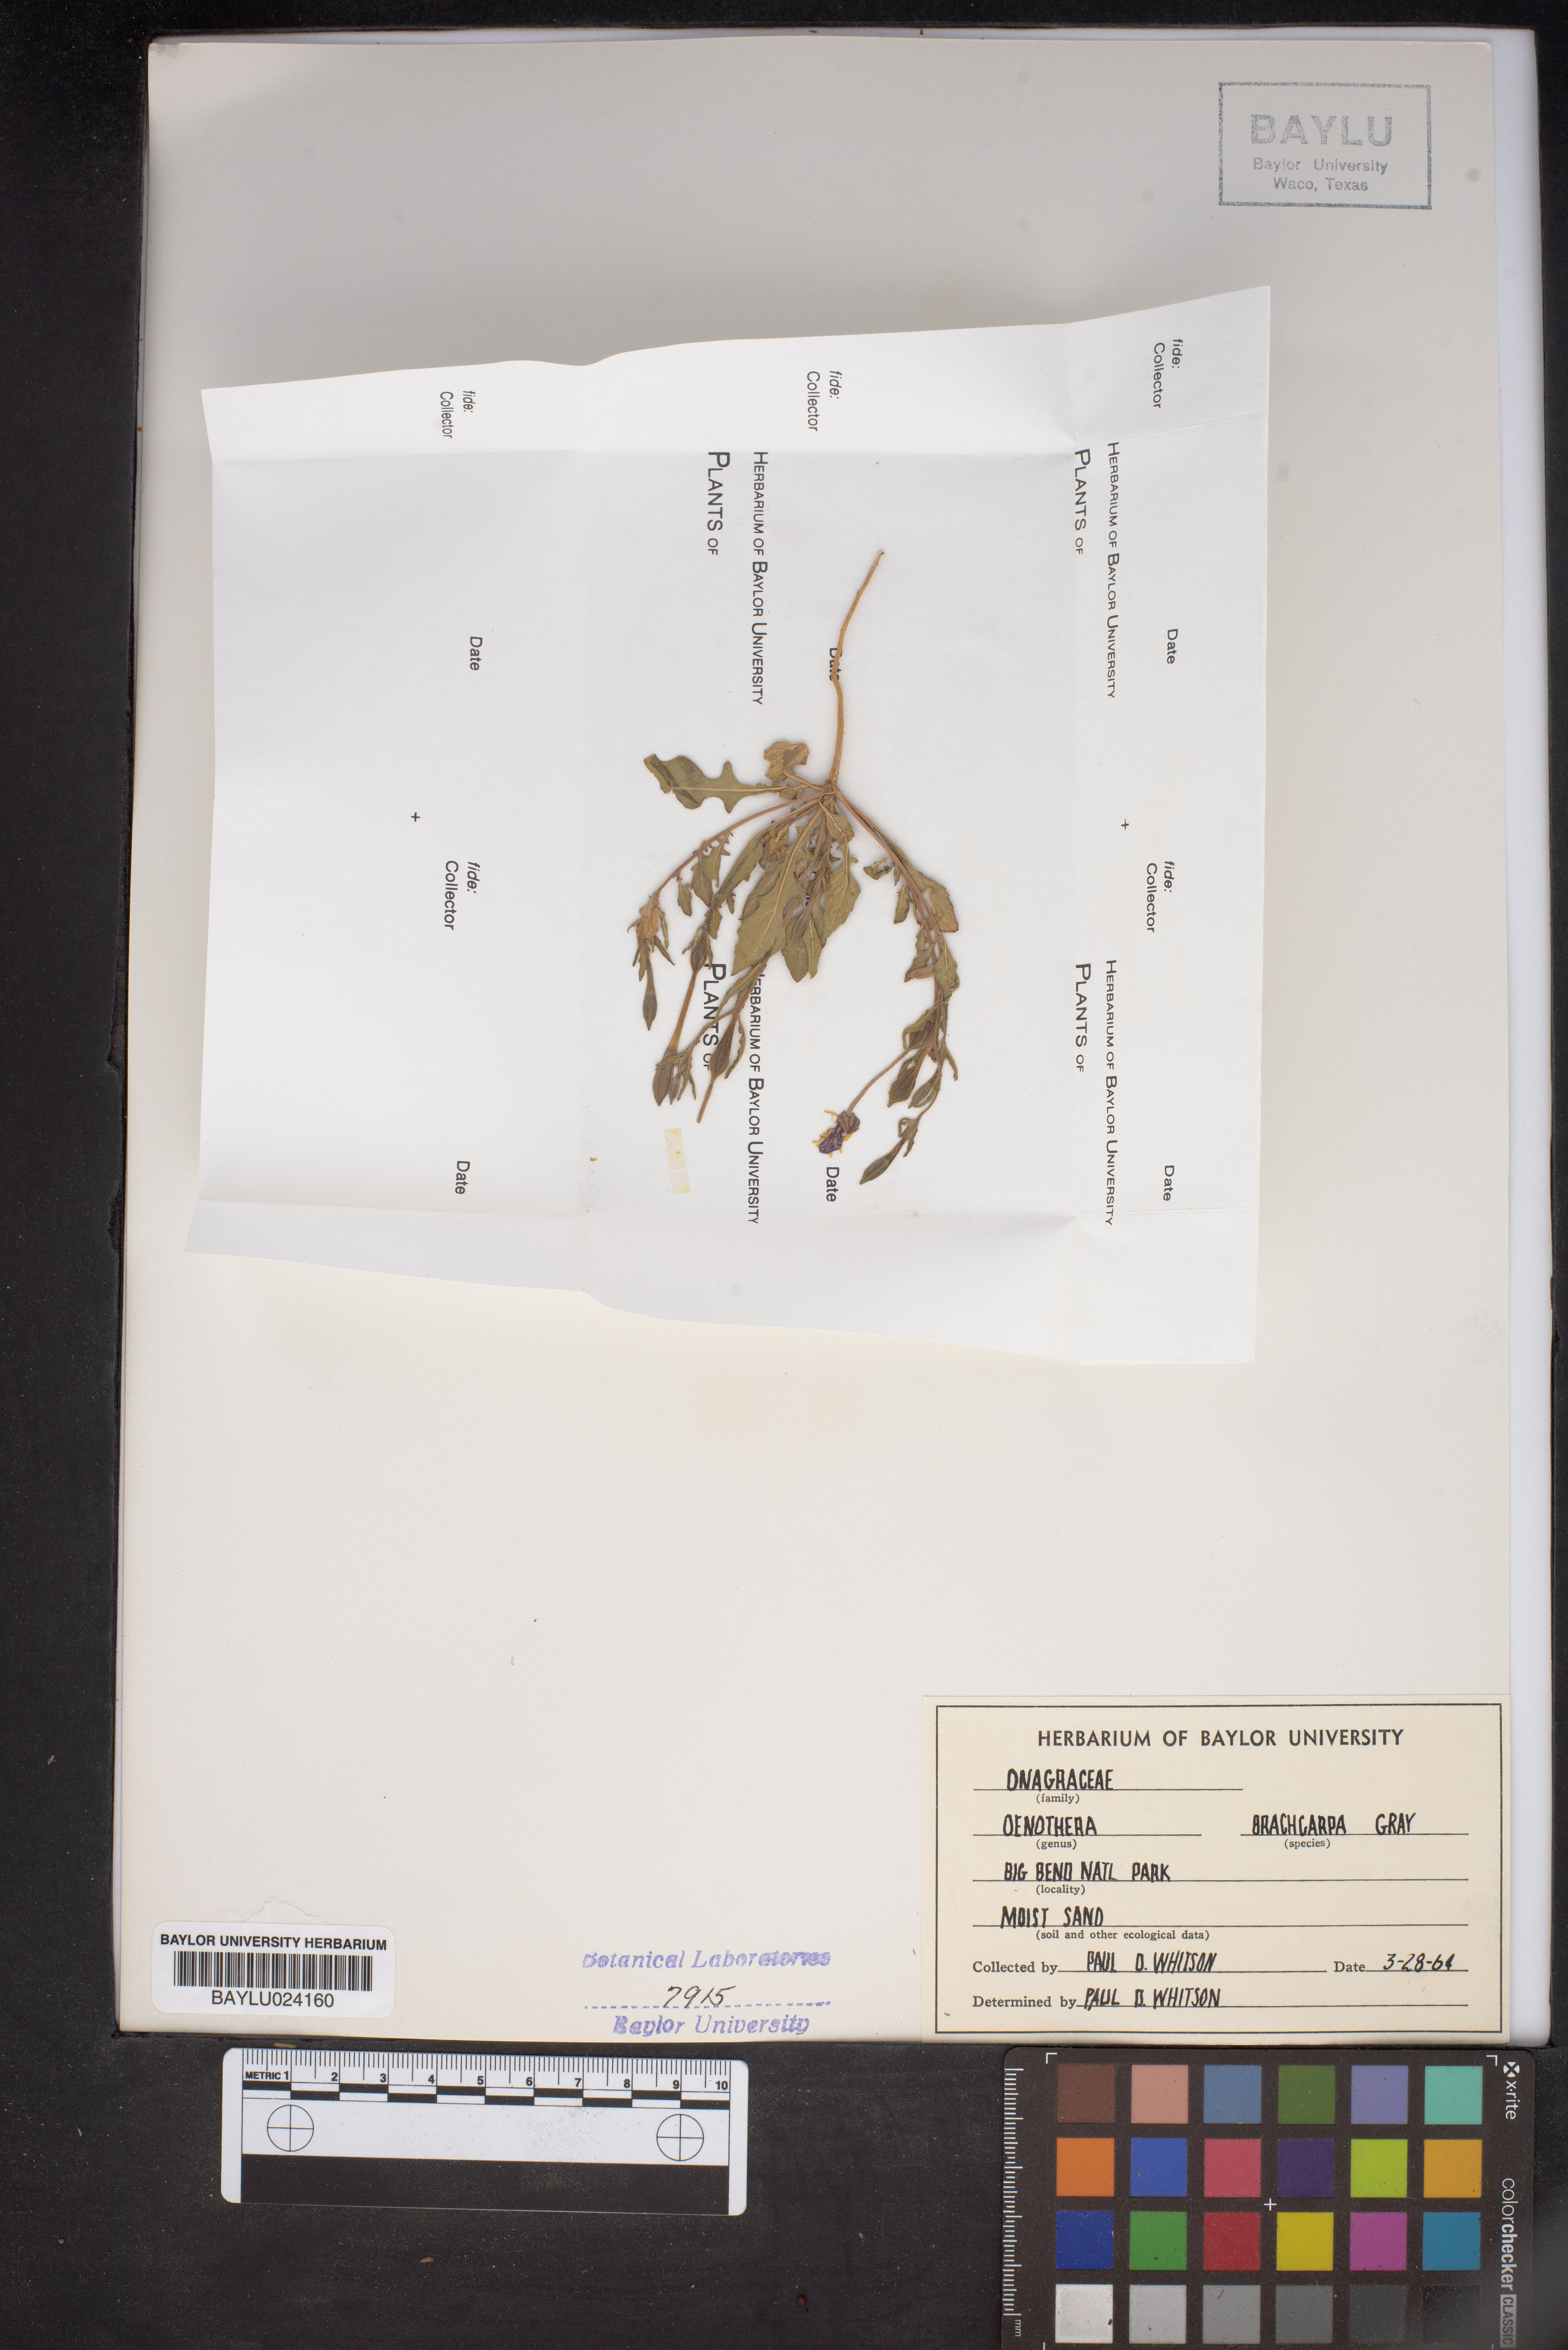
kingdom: Plantae
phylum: Tracheophyta
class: Magnoliopsida
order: Myrtales
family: Onagraceae
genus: Oenothera
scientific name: Oenothera brachycarpa
